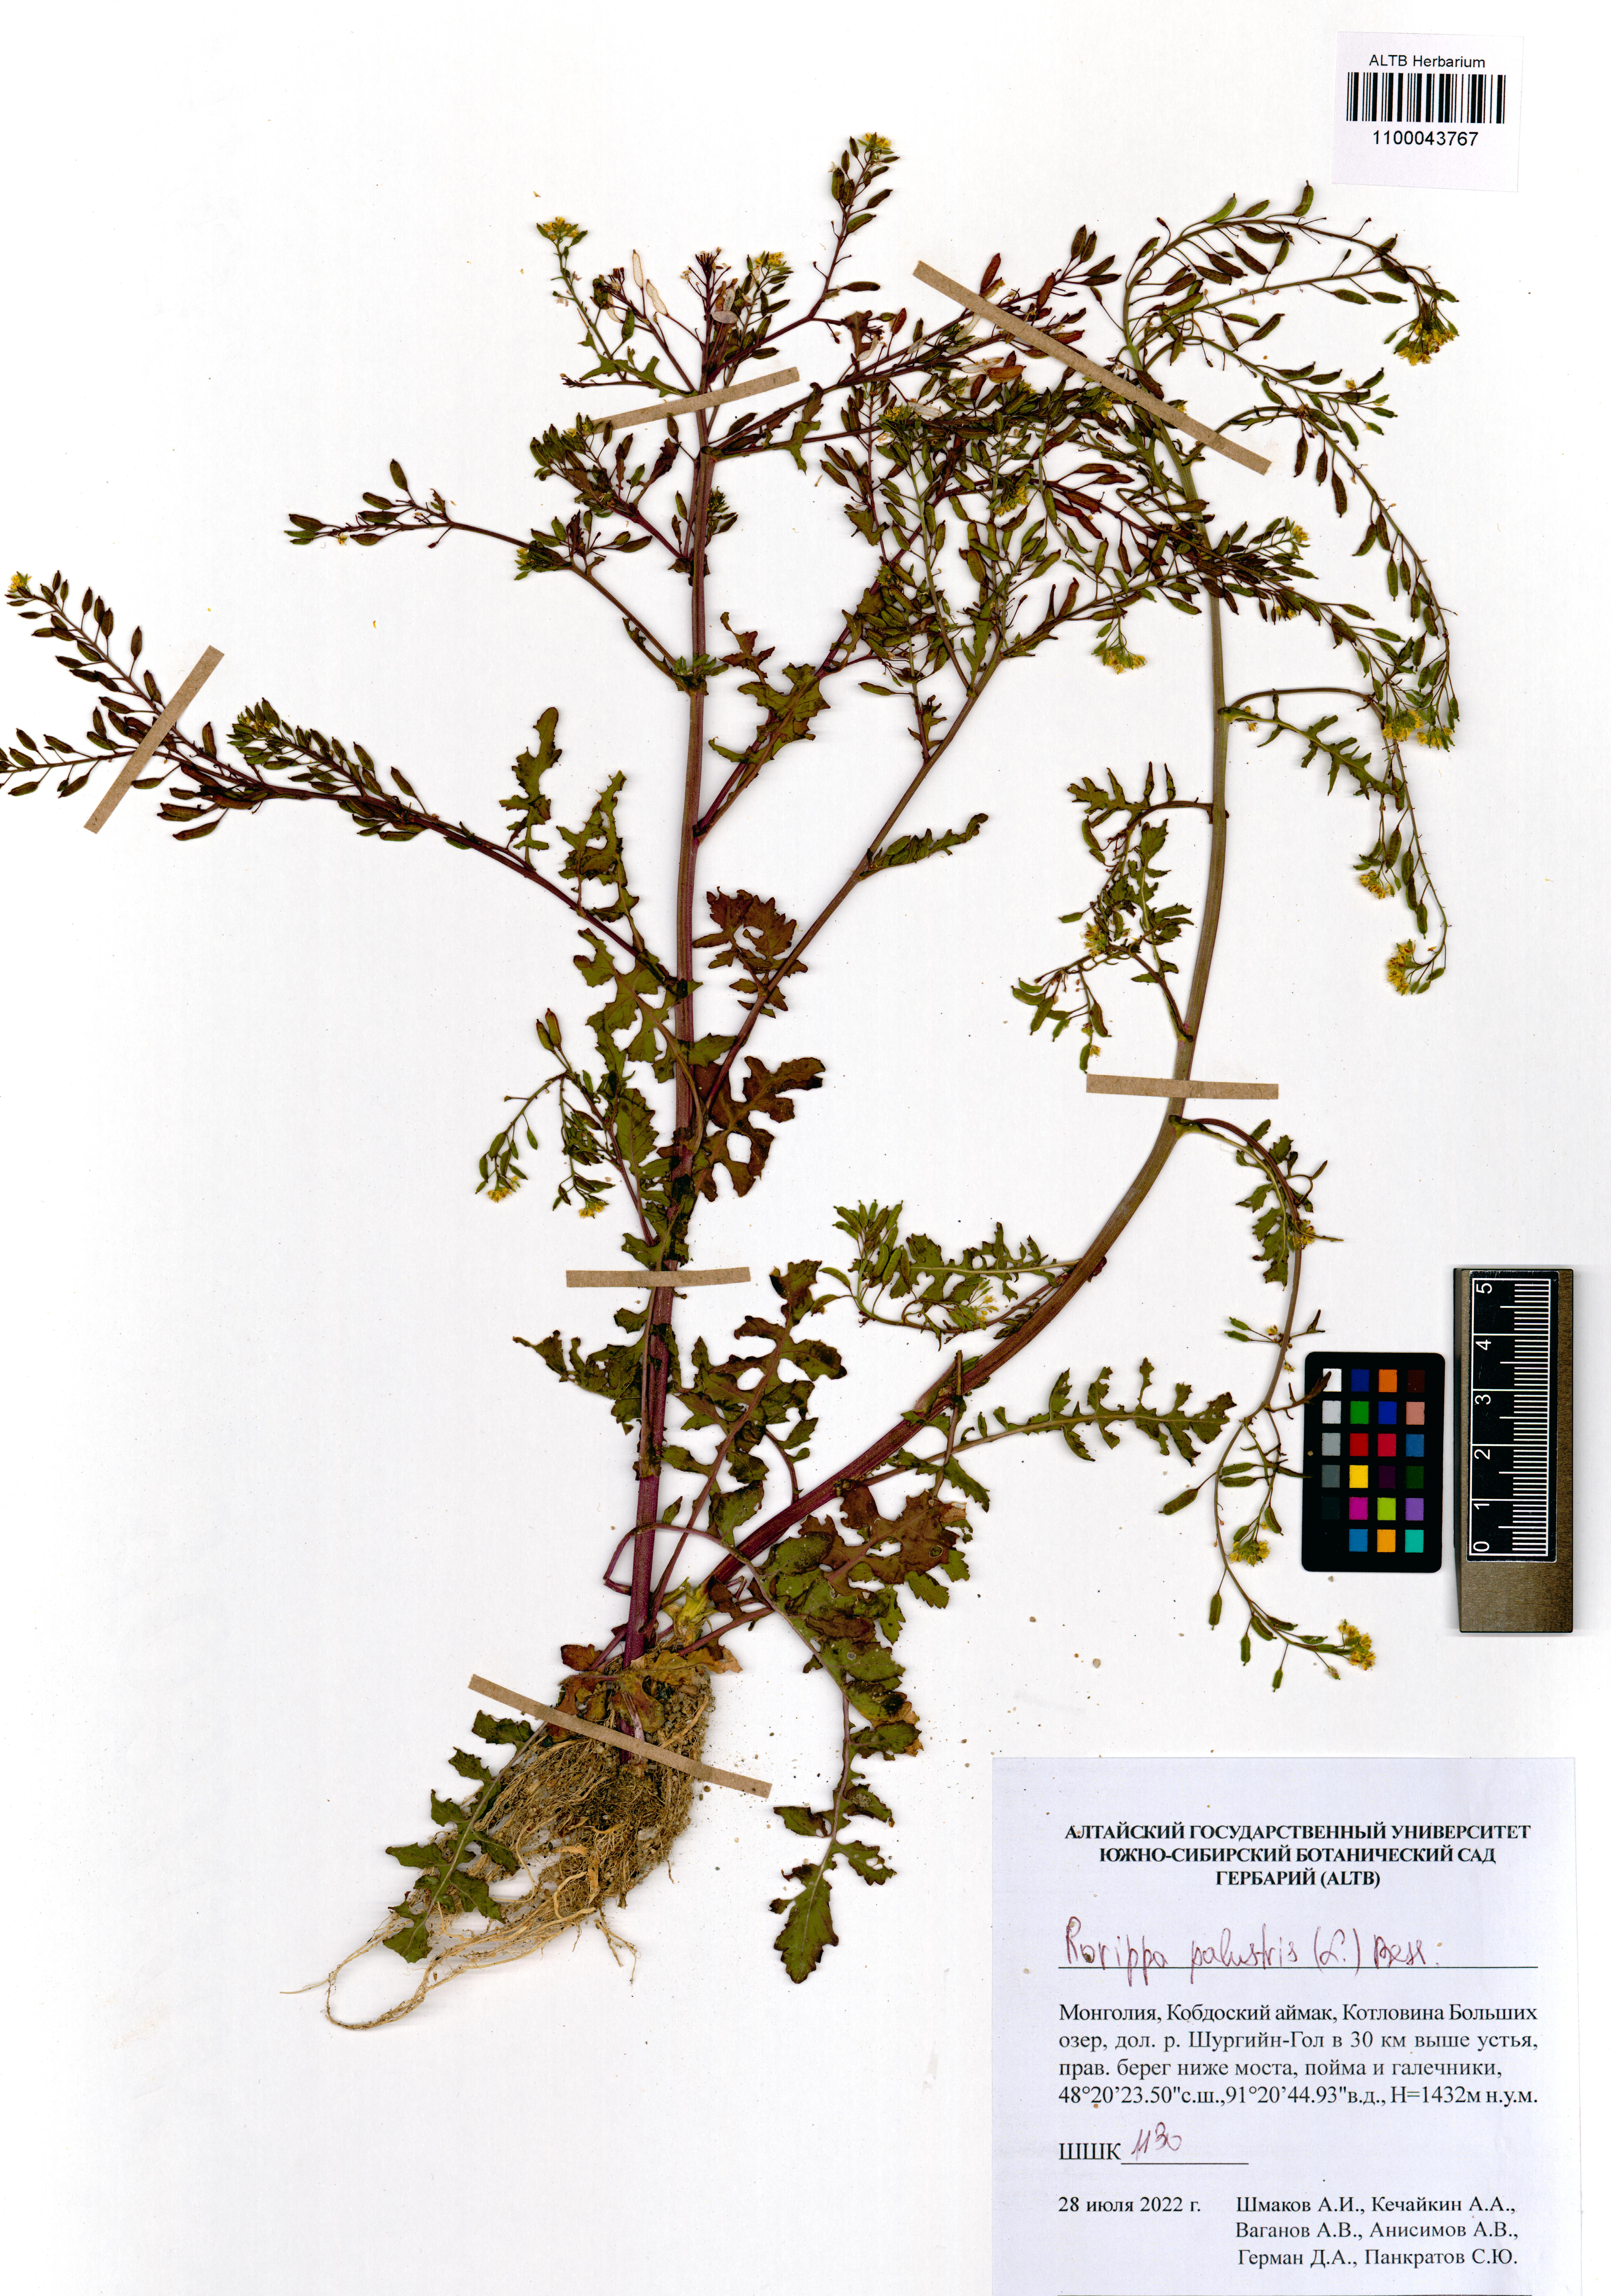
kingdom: Plantae
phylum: Tracheophyta
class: Magnoliopsida
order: Brassicales
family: Brassicaceae
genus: Rorippa
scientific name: Rorippa palustris
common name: Marsh yellow-cress
